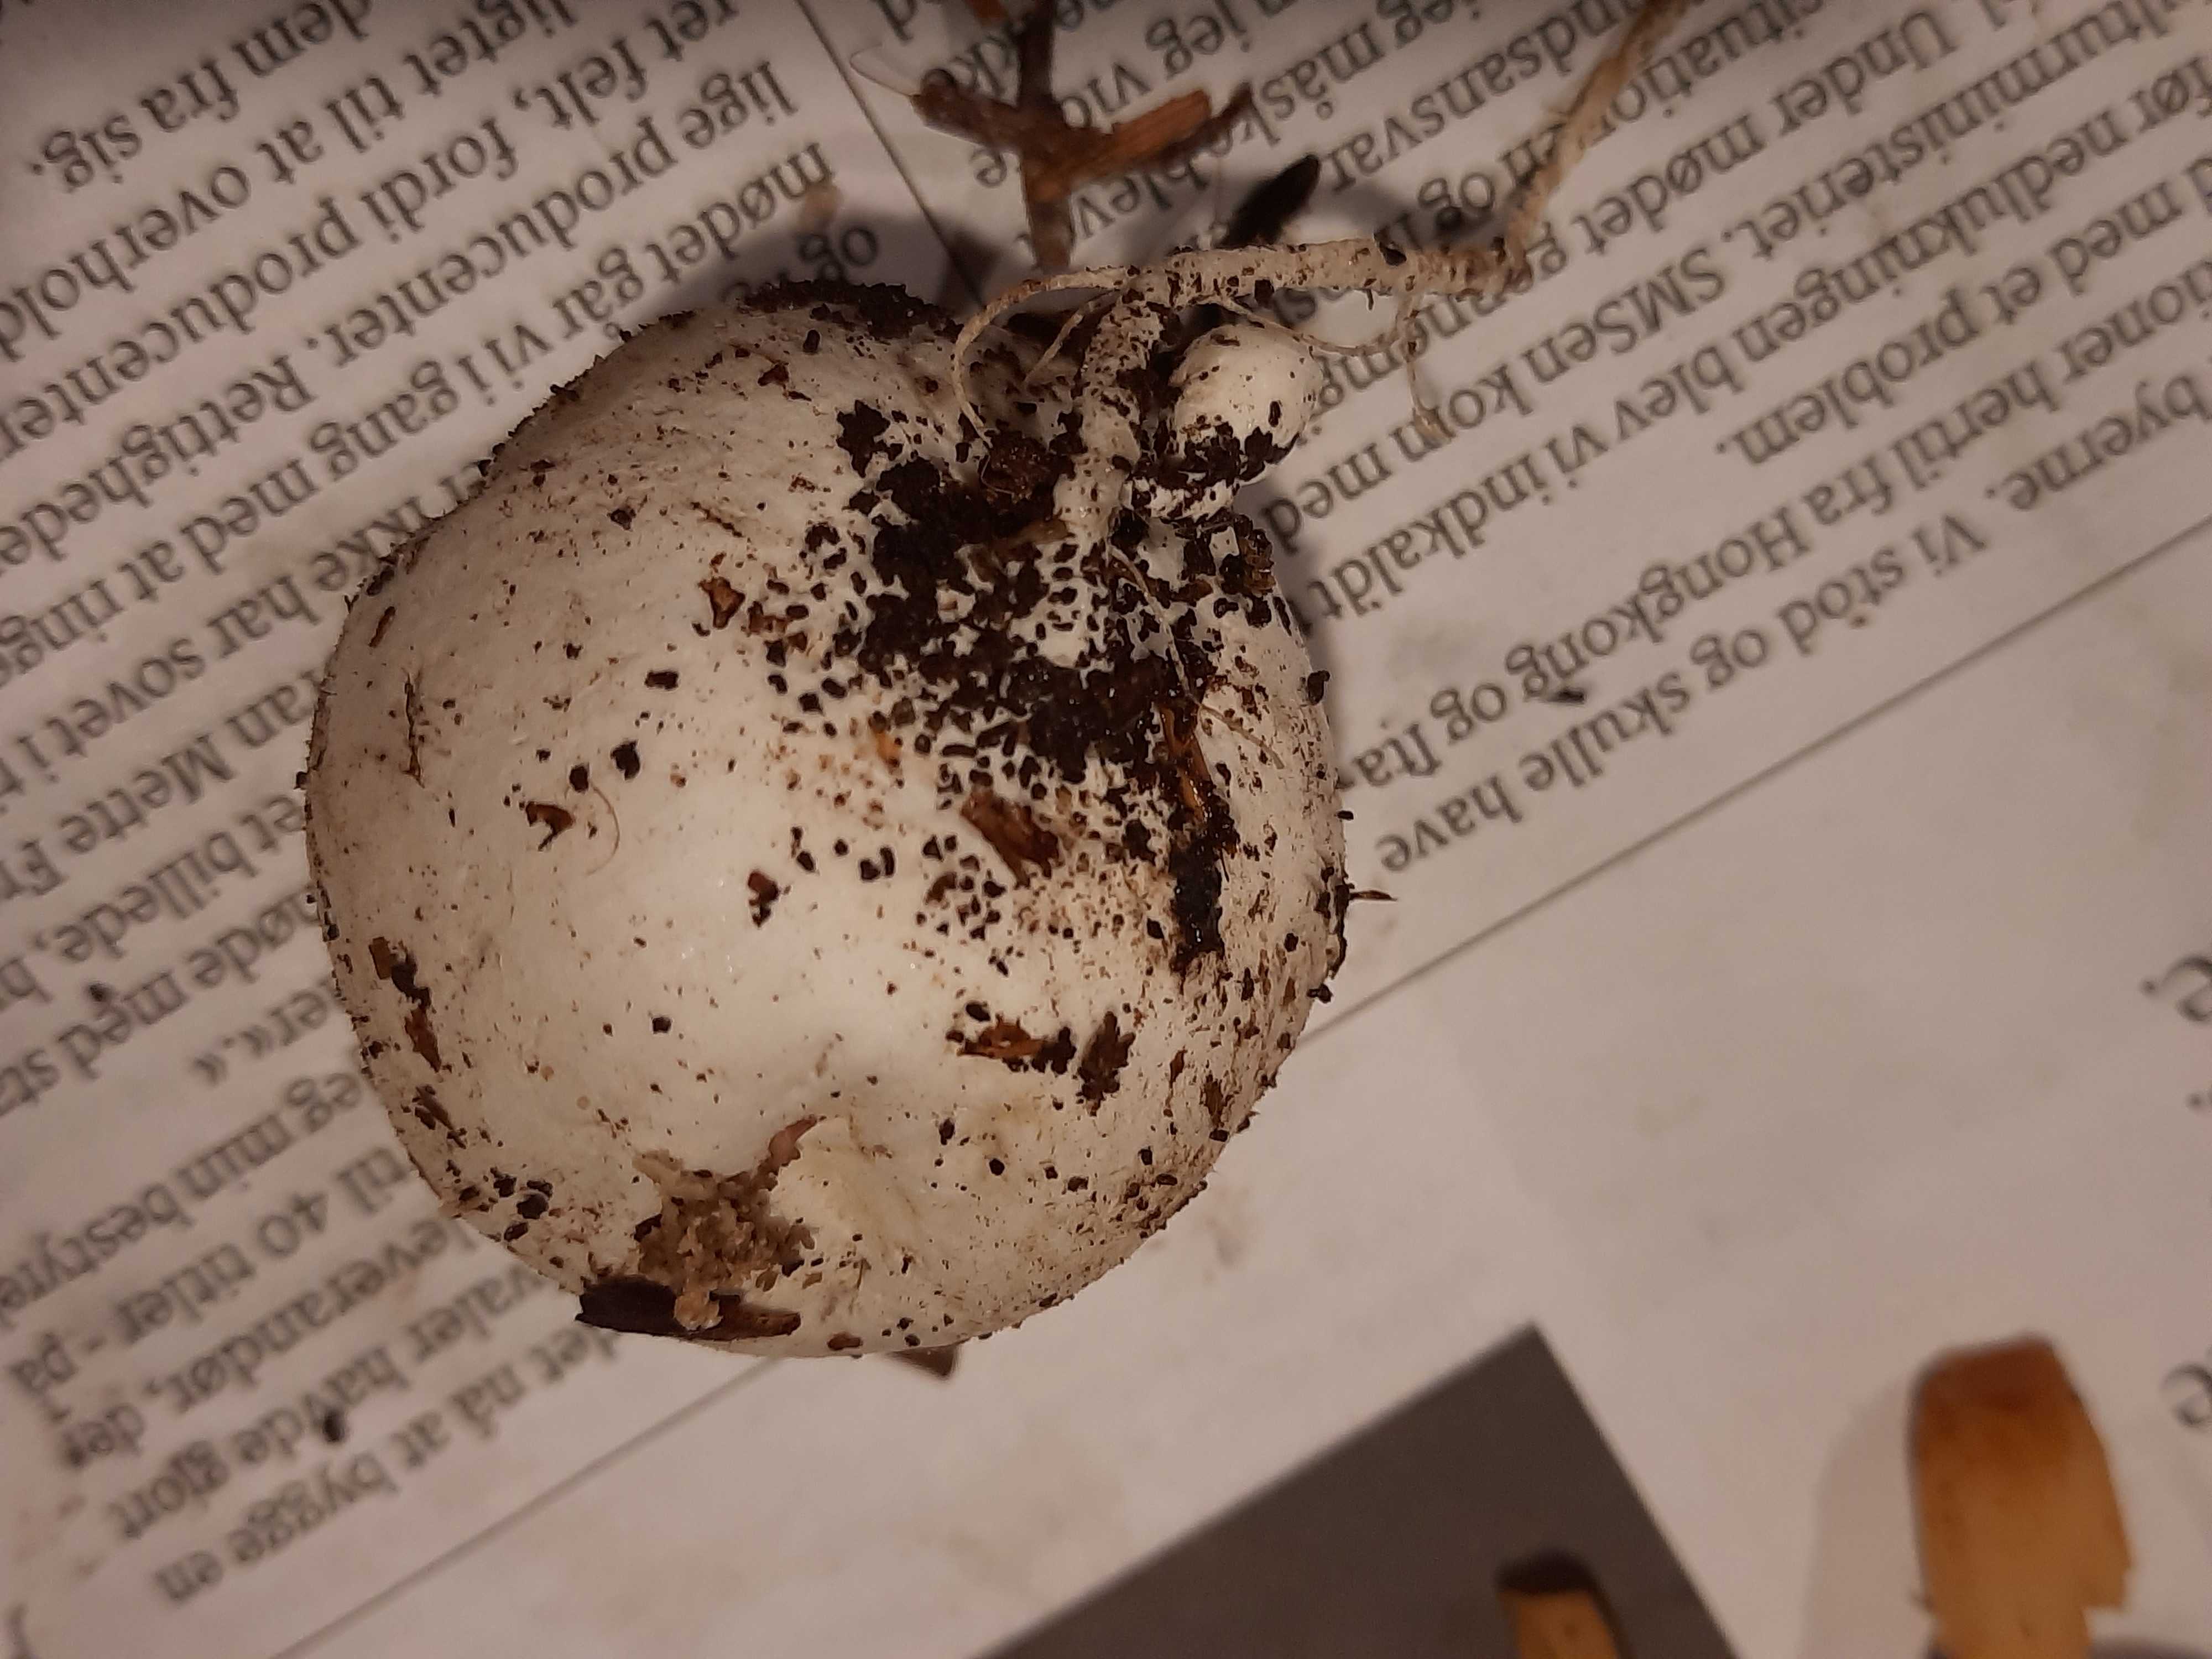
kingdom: Fungi
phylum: Basidiomycota
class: Agaricomycetes
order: Phallales
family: Phallaceae
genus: Phallus
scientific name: Phallus impudicus
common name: almindelig stinksvamp
